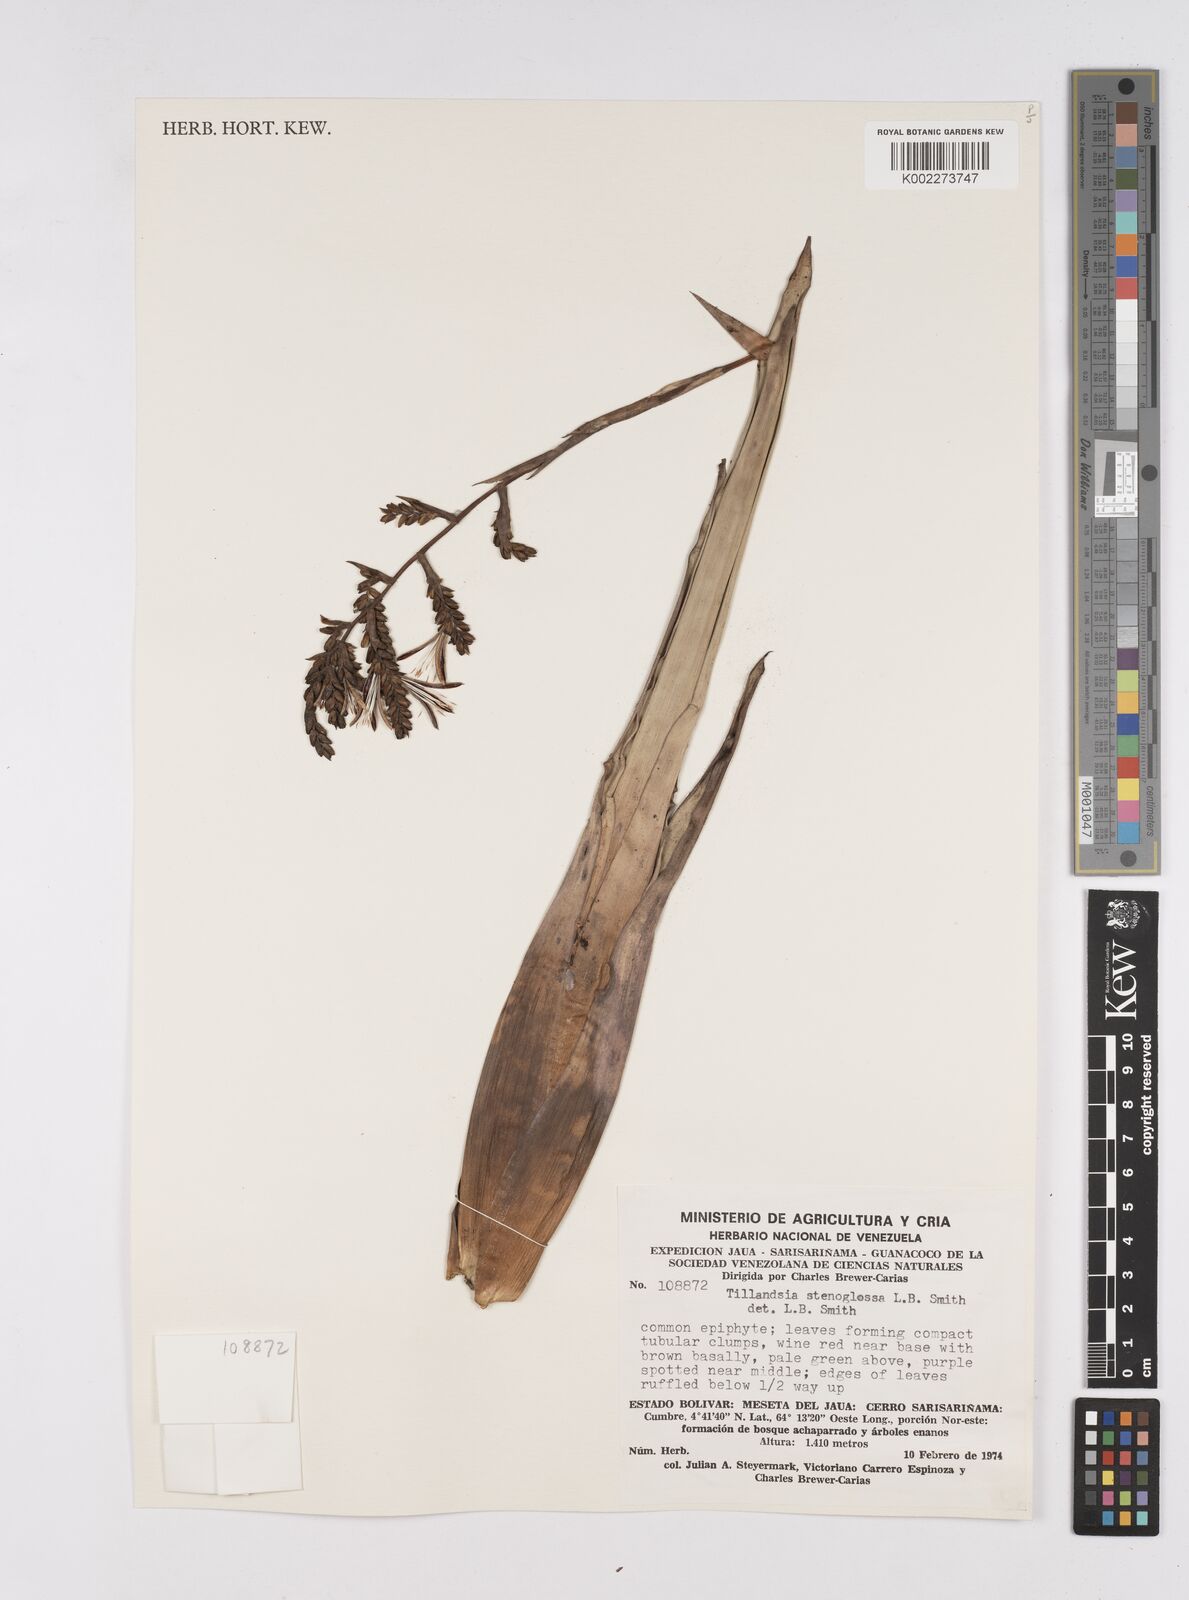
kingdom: Plantae
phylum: Tracheophyta
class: Liliopsida
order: Poales
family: Bromeliaceae
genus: Racinaea
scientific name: Racinaea spiculosa
